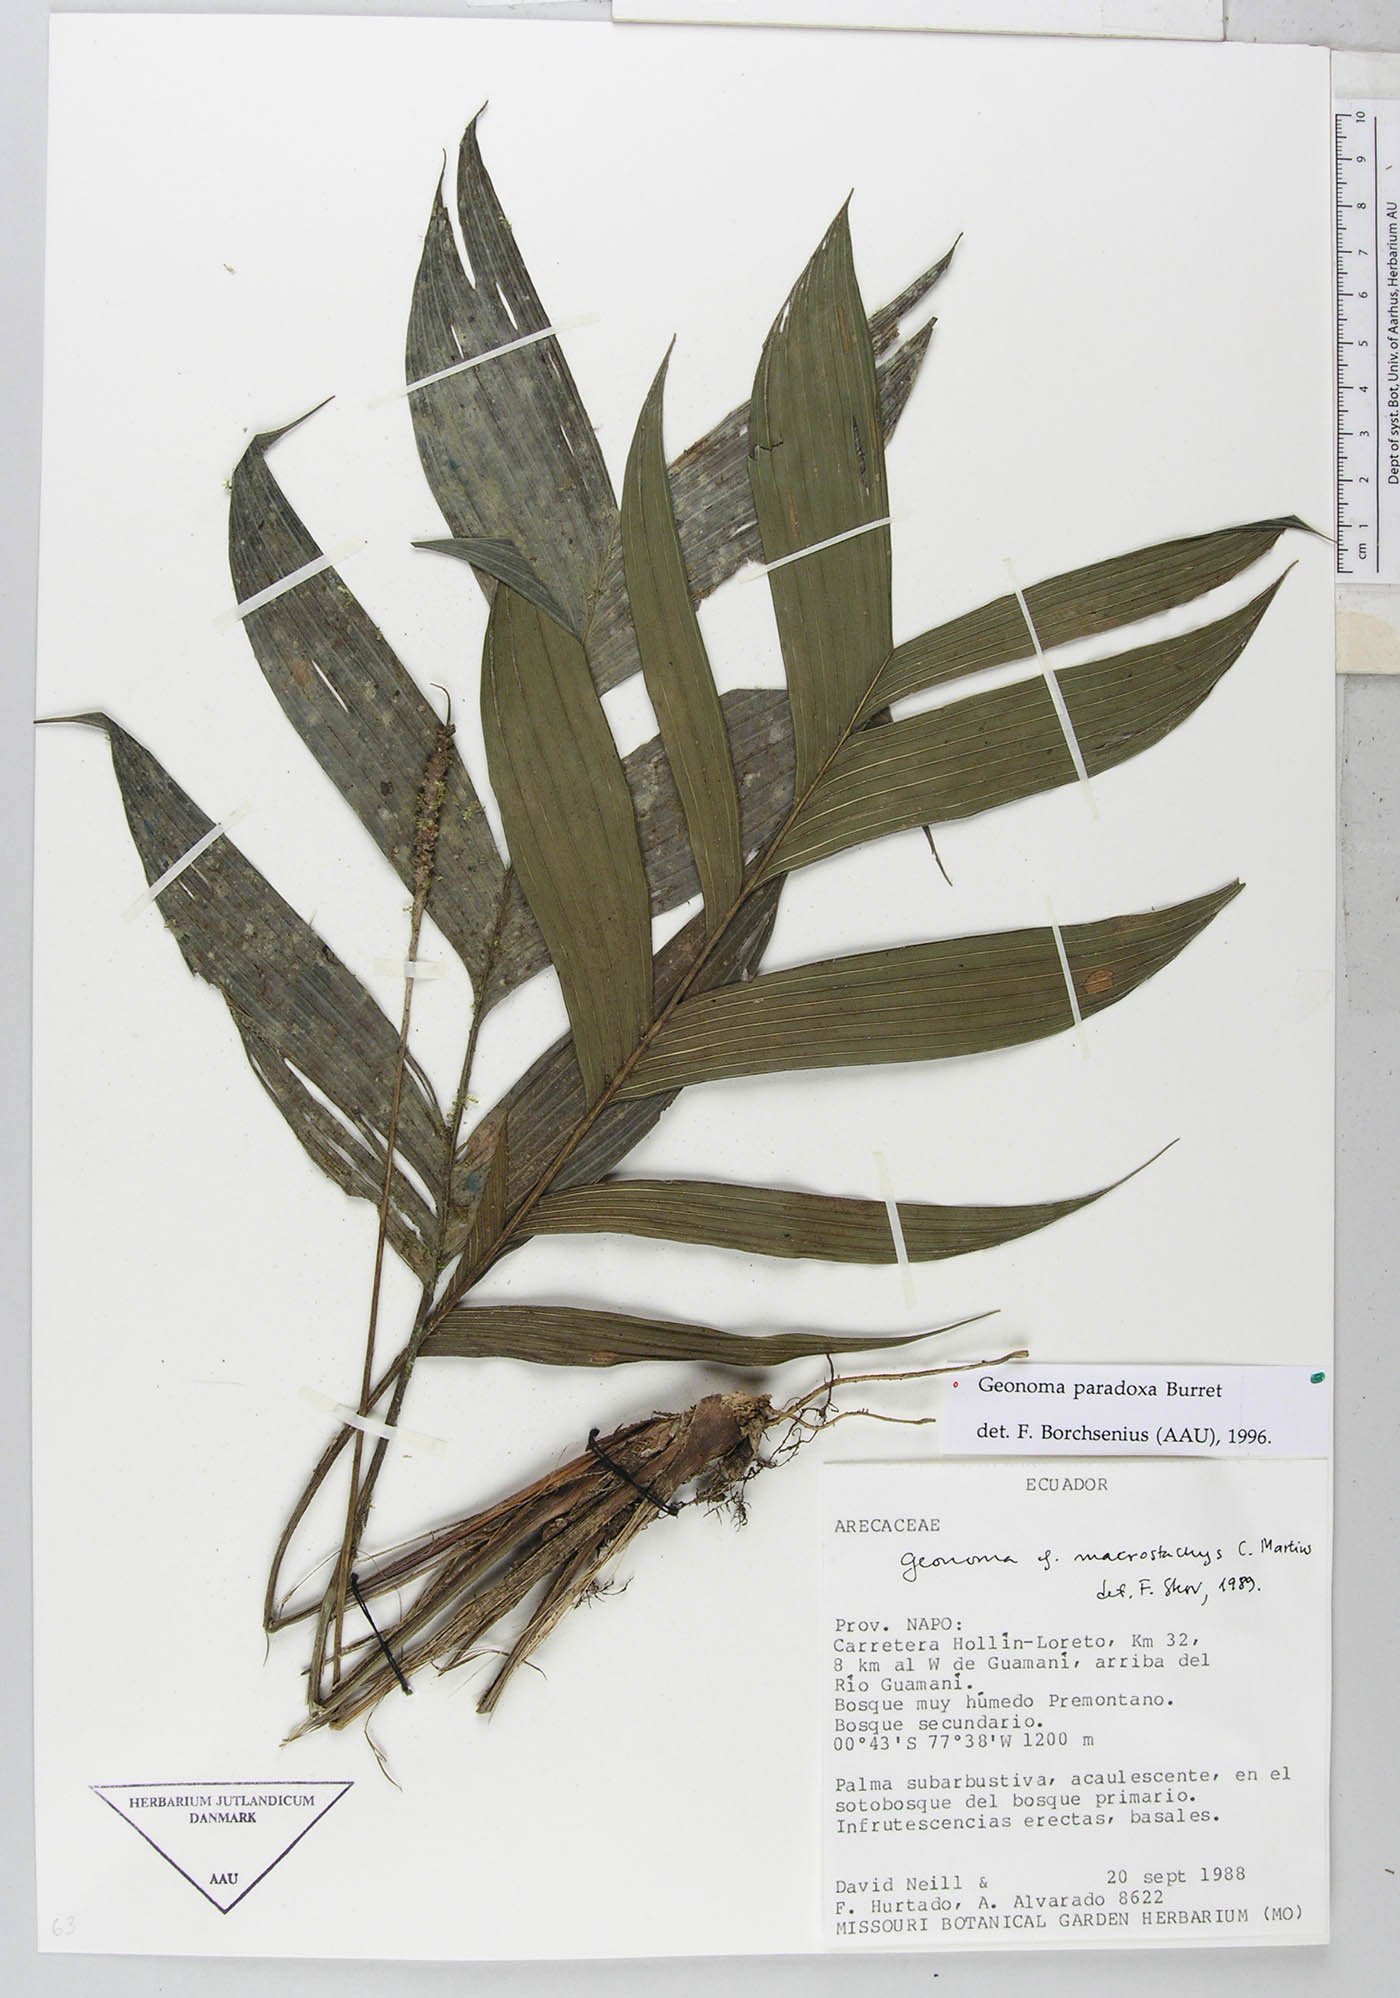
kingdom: Plantae
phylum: Tracheophyta
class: Liliopsida
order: Arecales
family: Arecaceae
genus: Geonoma
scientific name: Geonoma macrostachys
